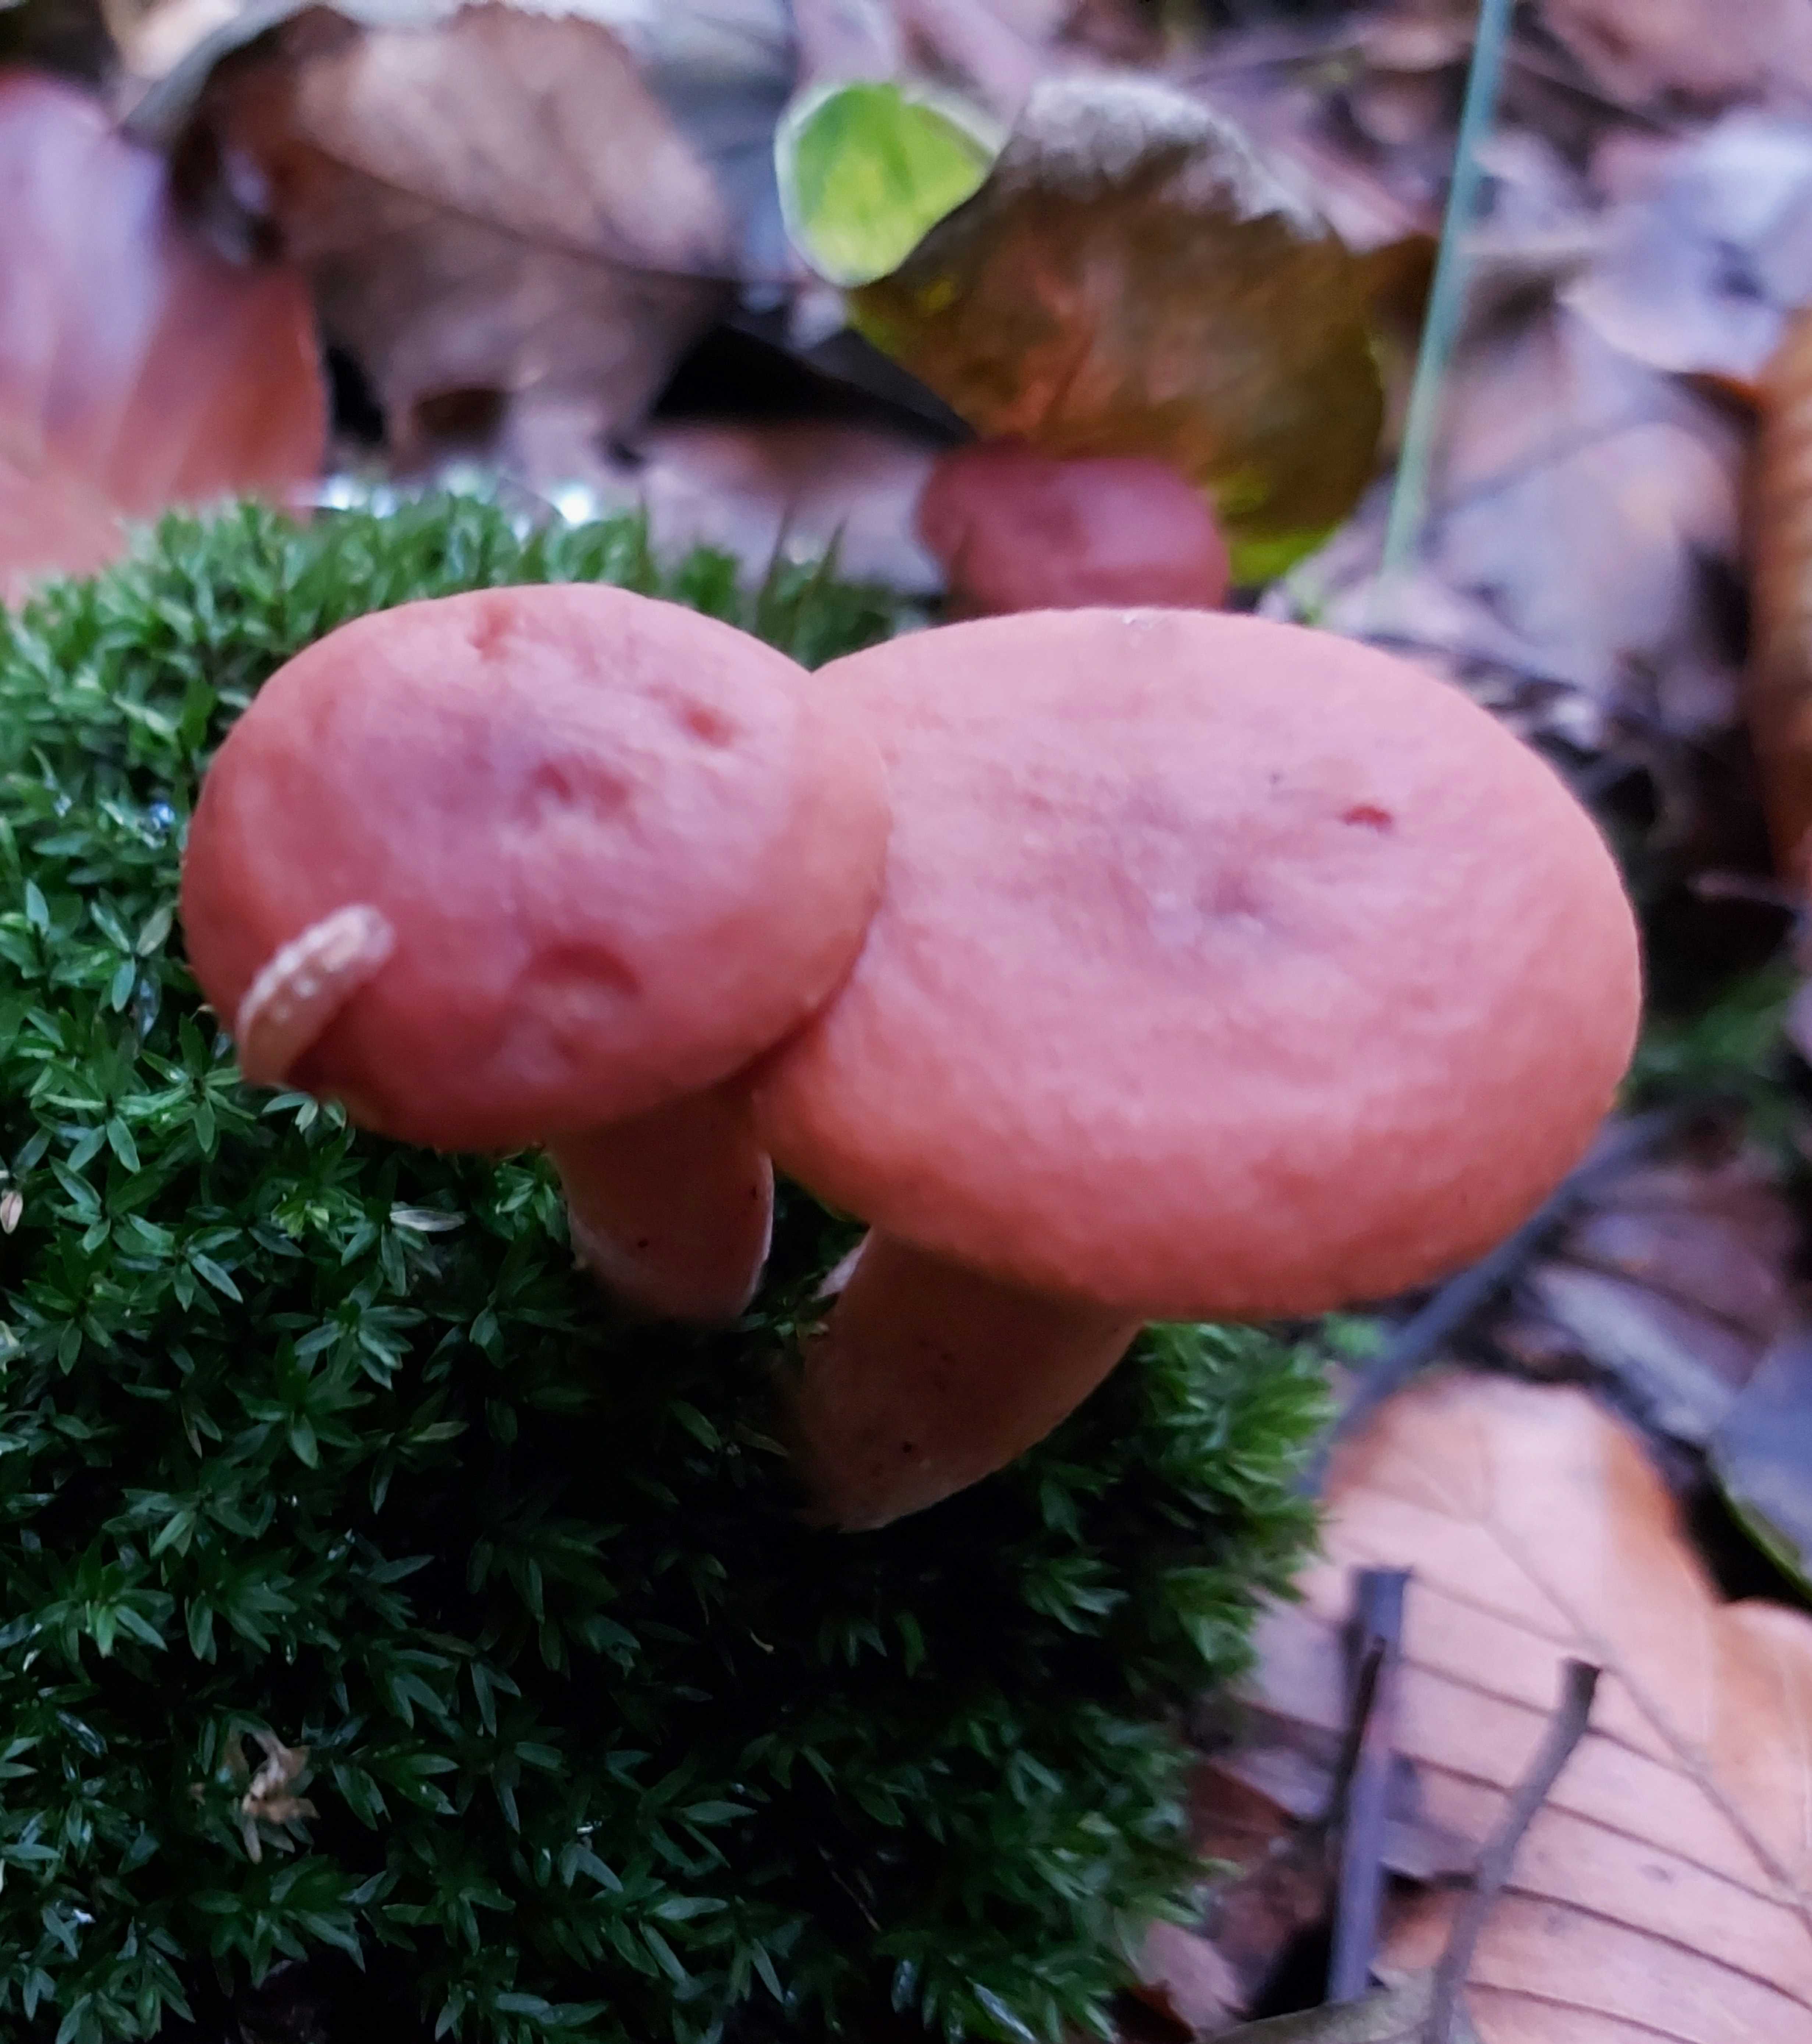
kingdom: Fungi
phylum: Basidiomycota
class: Agaricomycetes
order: Russulales
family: Russulaceae
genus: Lactarius
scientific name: Lactarius
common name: mælkehat
